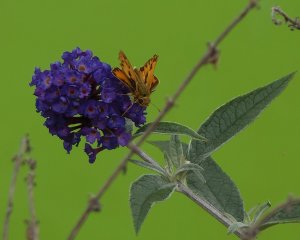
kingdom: Animalia
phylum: Arthropoda
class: Insecta
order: Lepidoptera
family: Hesperiidae
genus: Hylephila
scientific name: Hylephila phyleus
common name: Fiery Skipper
